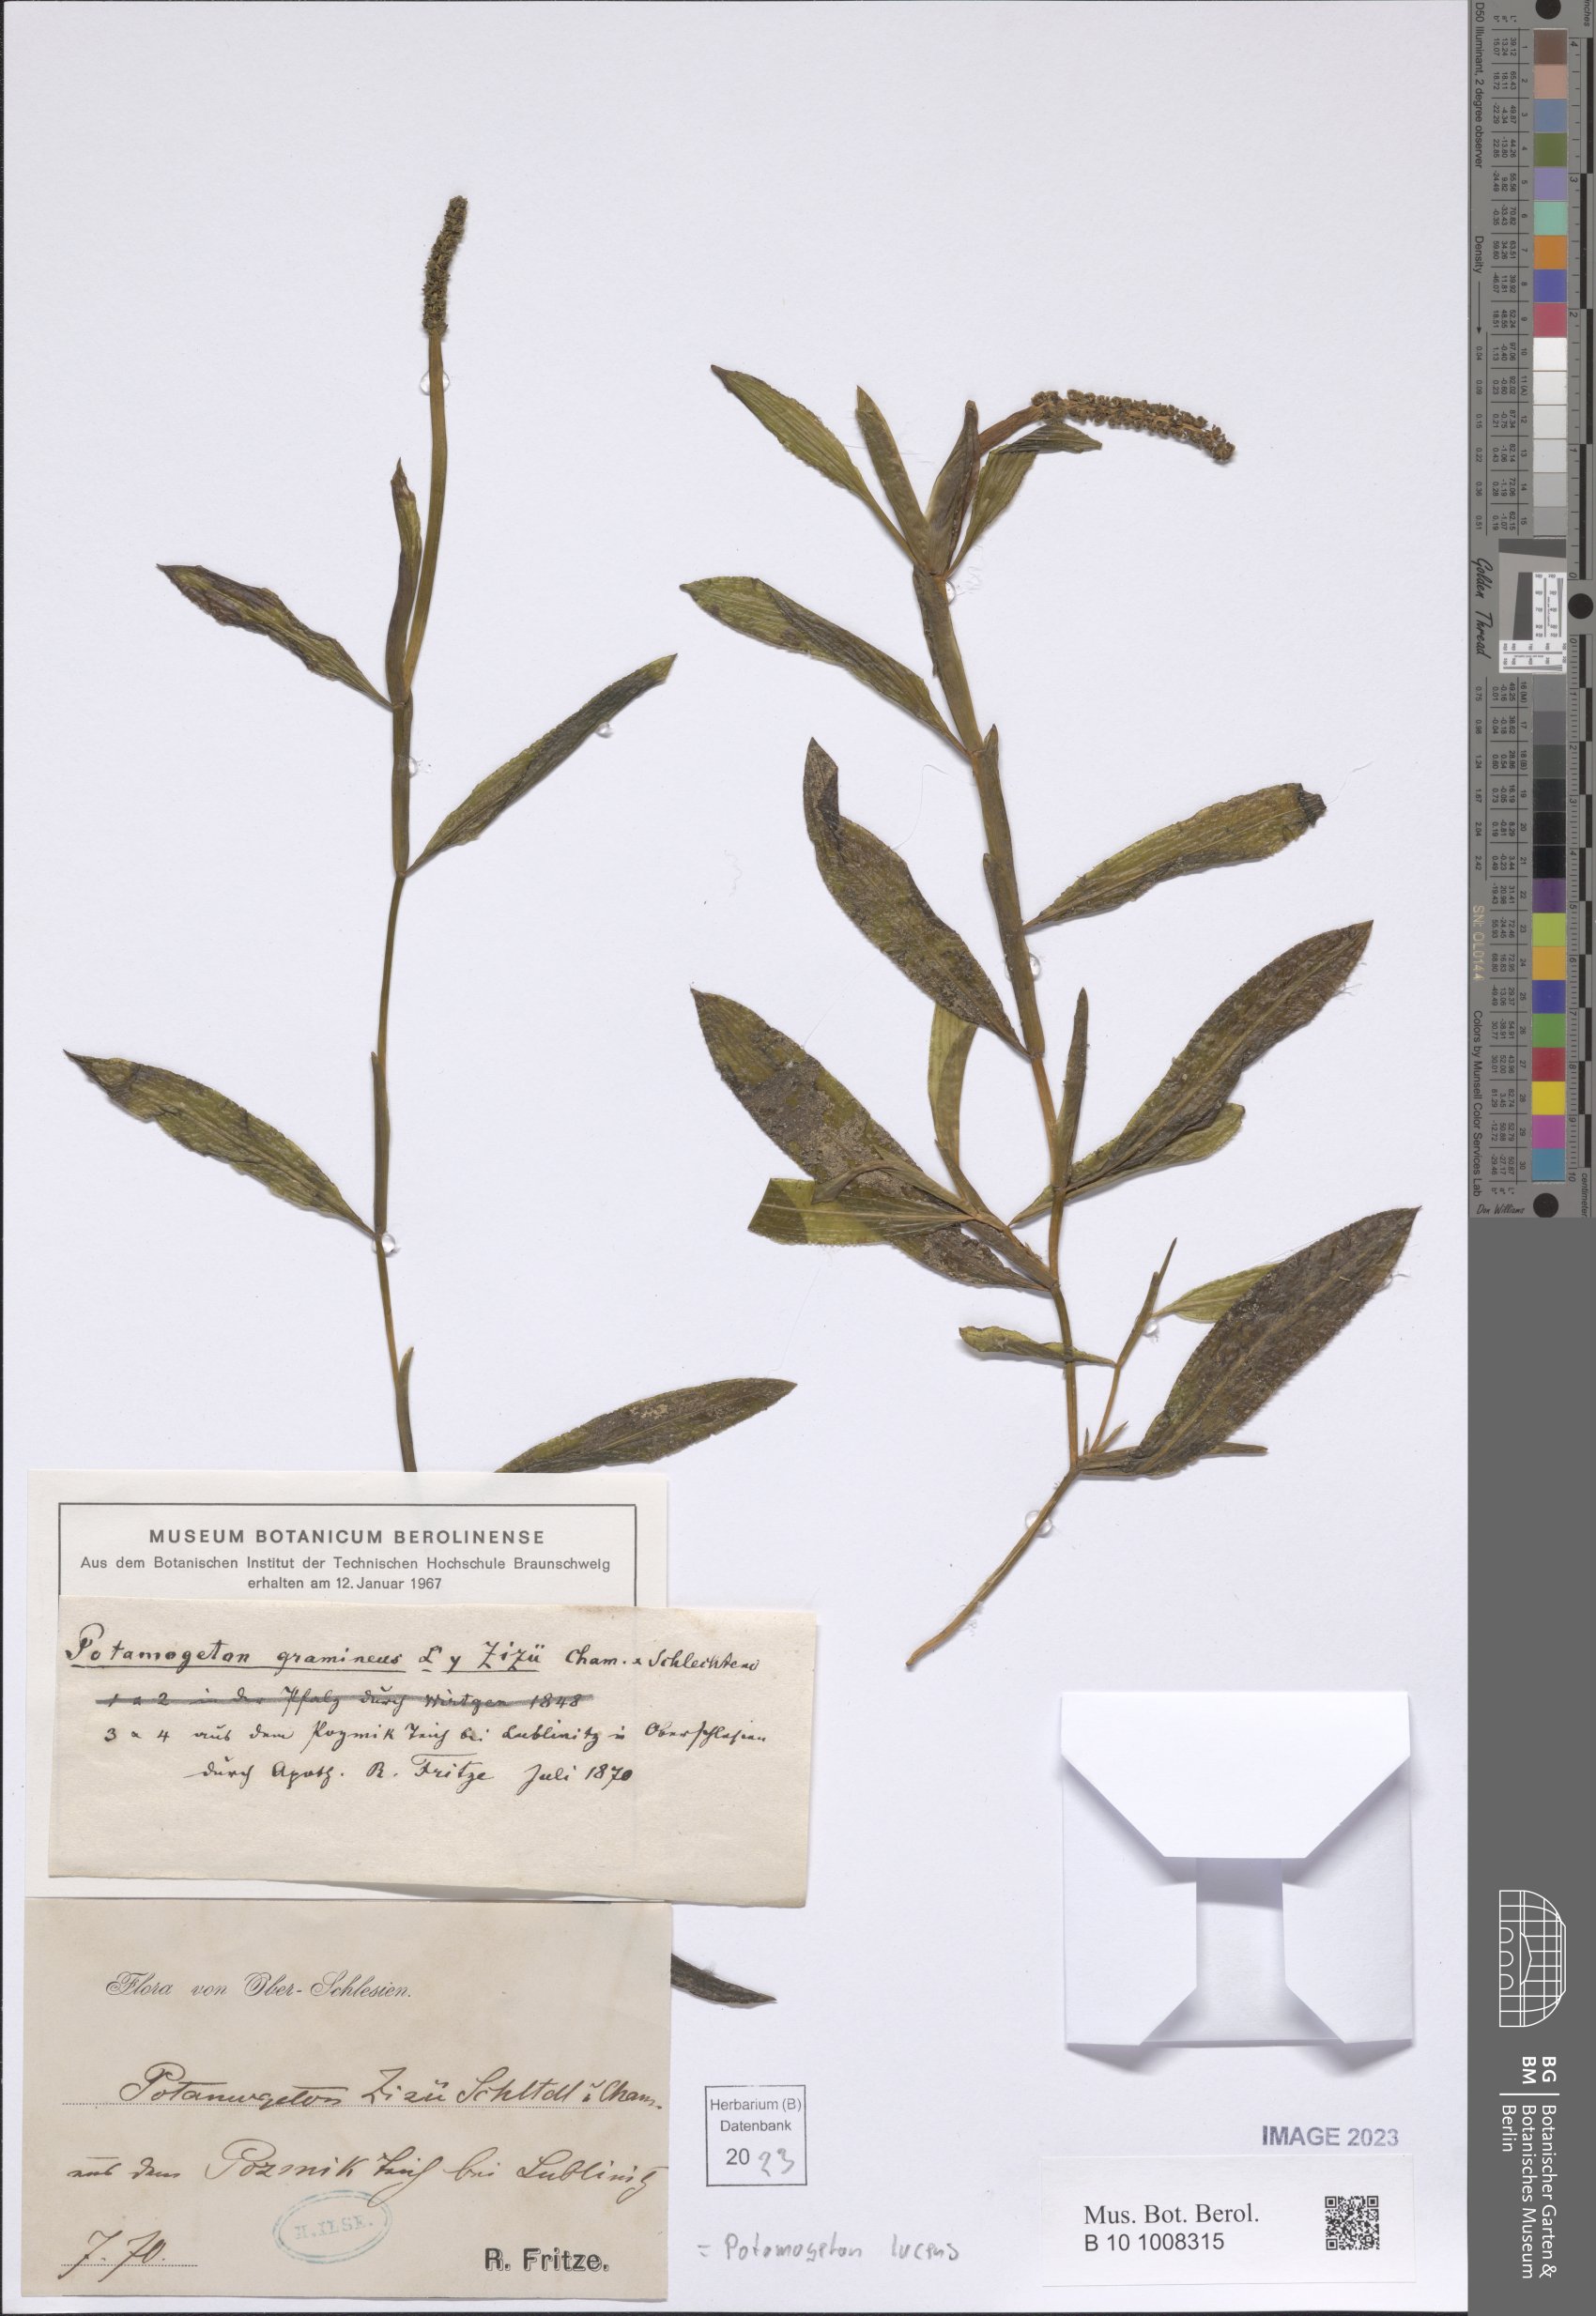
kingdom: Plantae
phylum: Tracheophyta
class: Liliopsida
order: Alismatales
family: Potamogetonaceae
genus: Potamogeton
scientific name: Potamogeton lucens
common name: Shining pondweed
